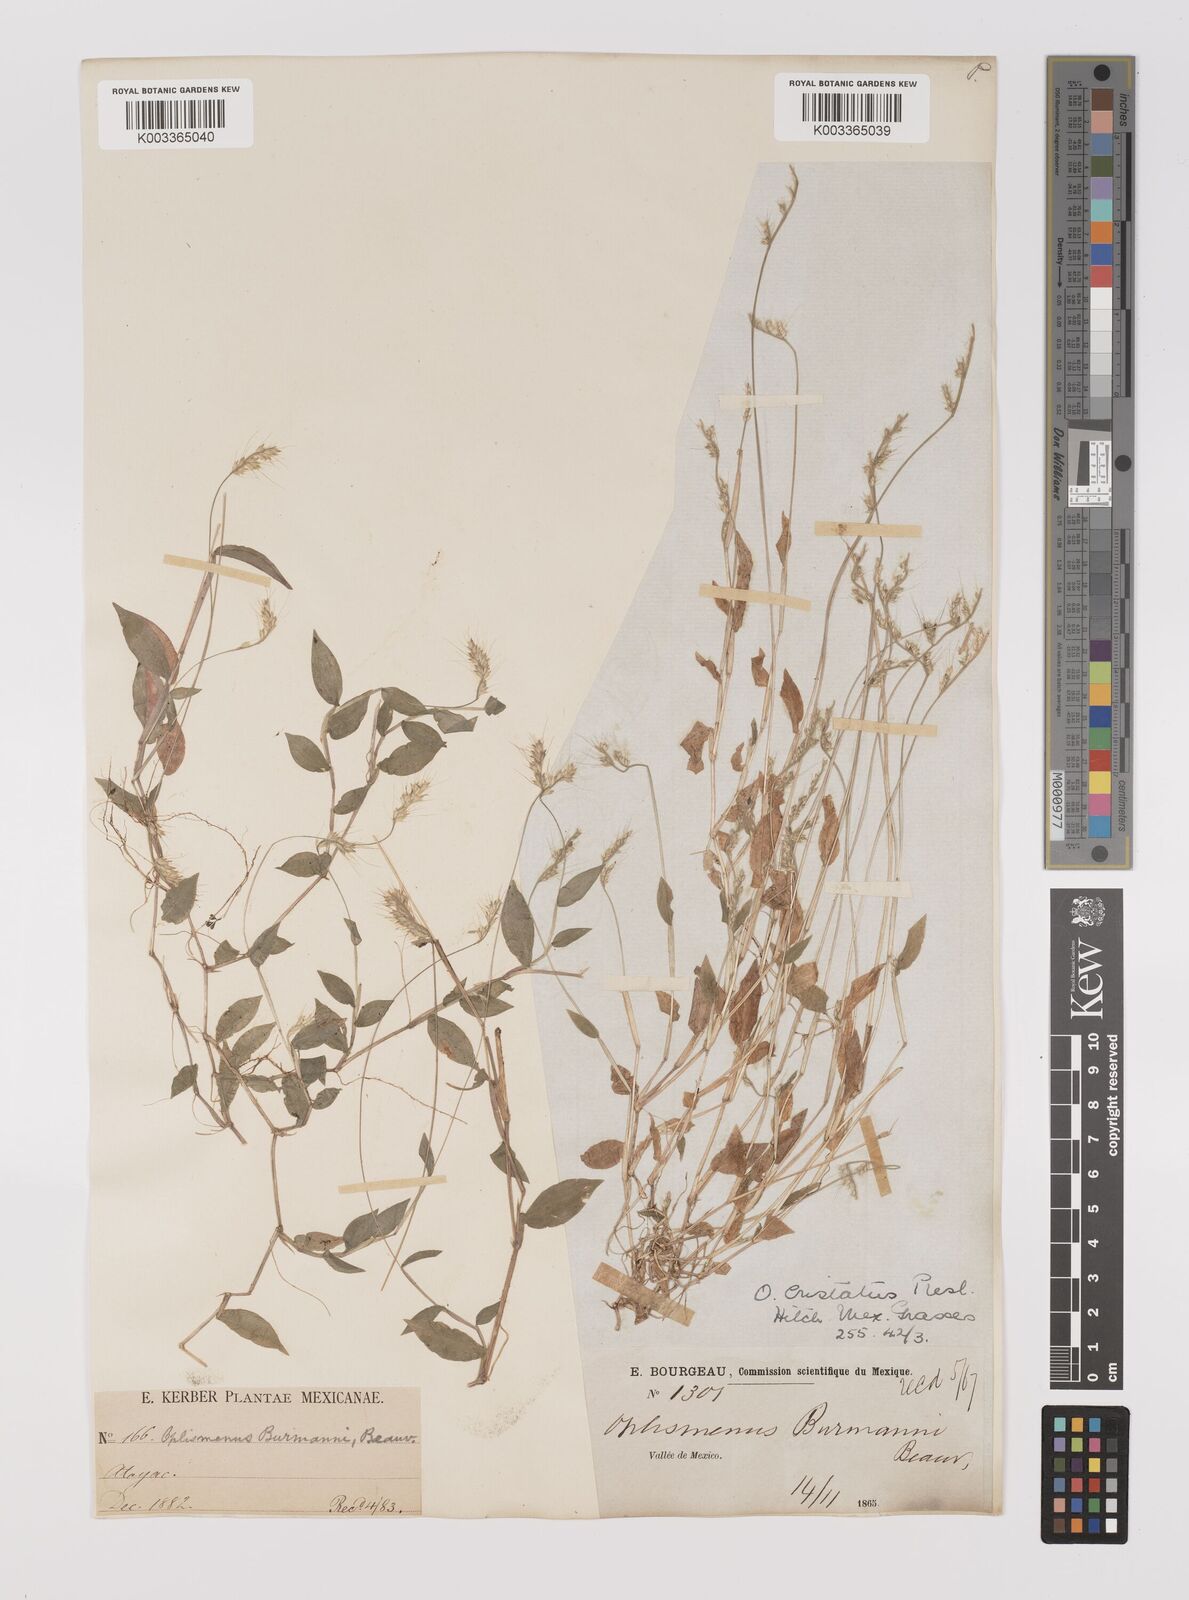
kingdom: Plantae
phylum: Tracheophyta
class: Liliopsida
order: Poales
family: Poaceae
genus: Oplismenus
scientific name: Oplismenus burmanni
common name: Burmann's basketgrass
